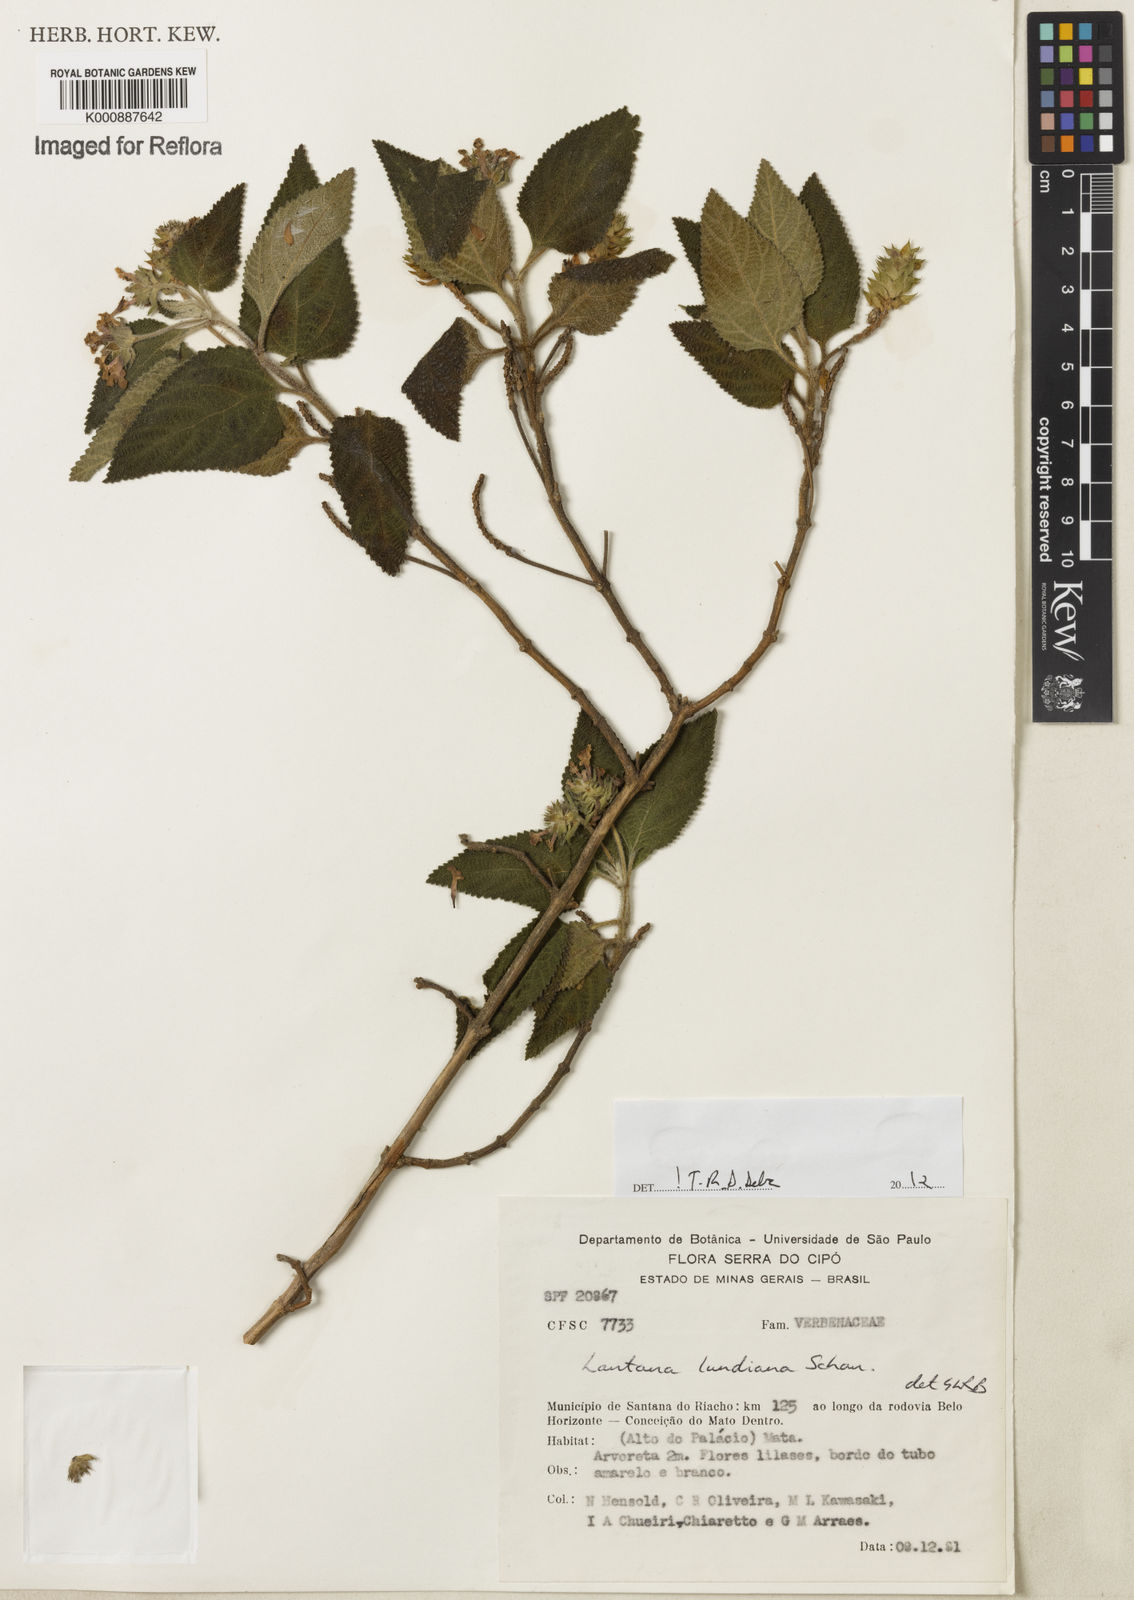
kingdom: Plantae
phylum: Tracheophyta
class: Magnoliopsida
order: Lamiales
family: Verbenaceae
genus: Lantana
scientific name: Lantana lundiana
